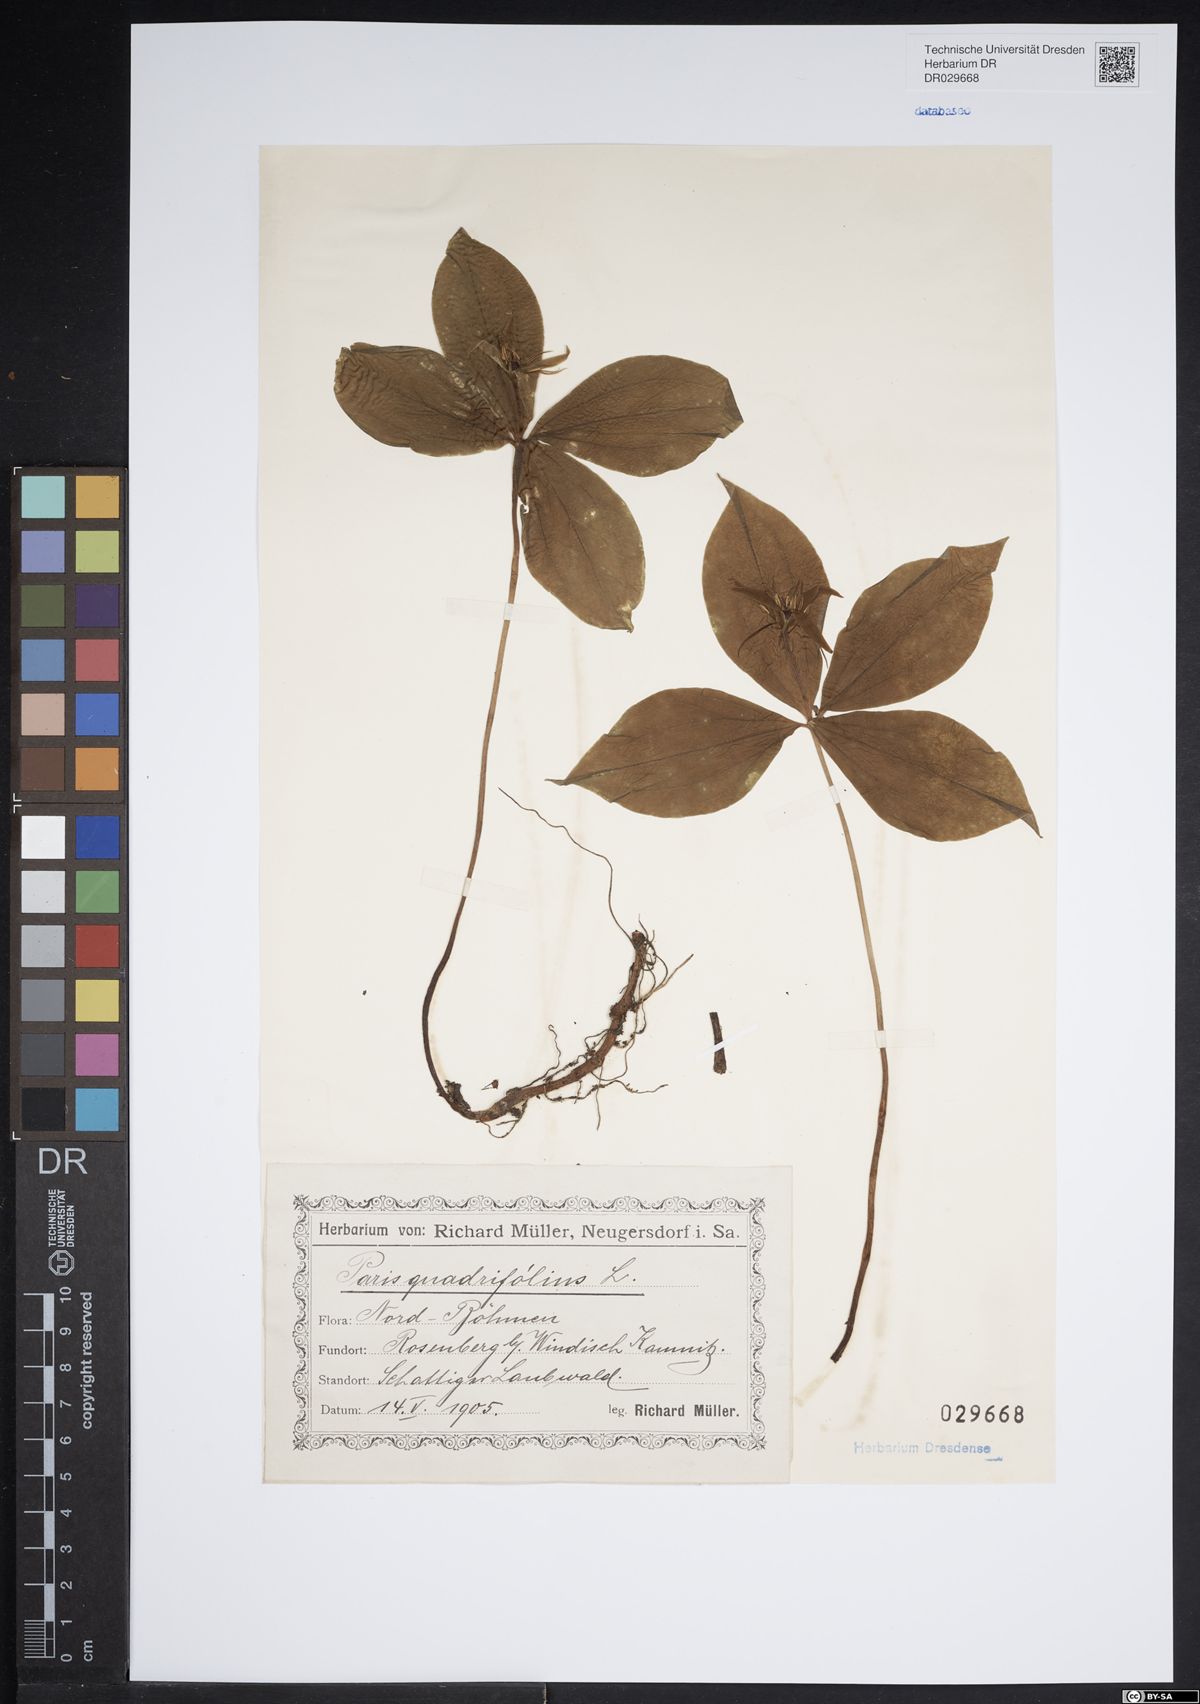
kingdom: Plantae
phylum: Tracheophyta
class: Liliopsida
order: Liliales
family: Melanthiaceae
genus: Paris
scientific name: Paris quadrifolia
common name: Herb-paris
